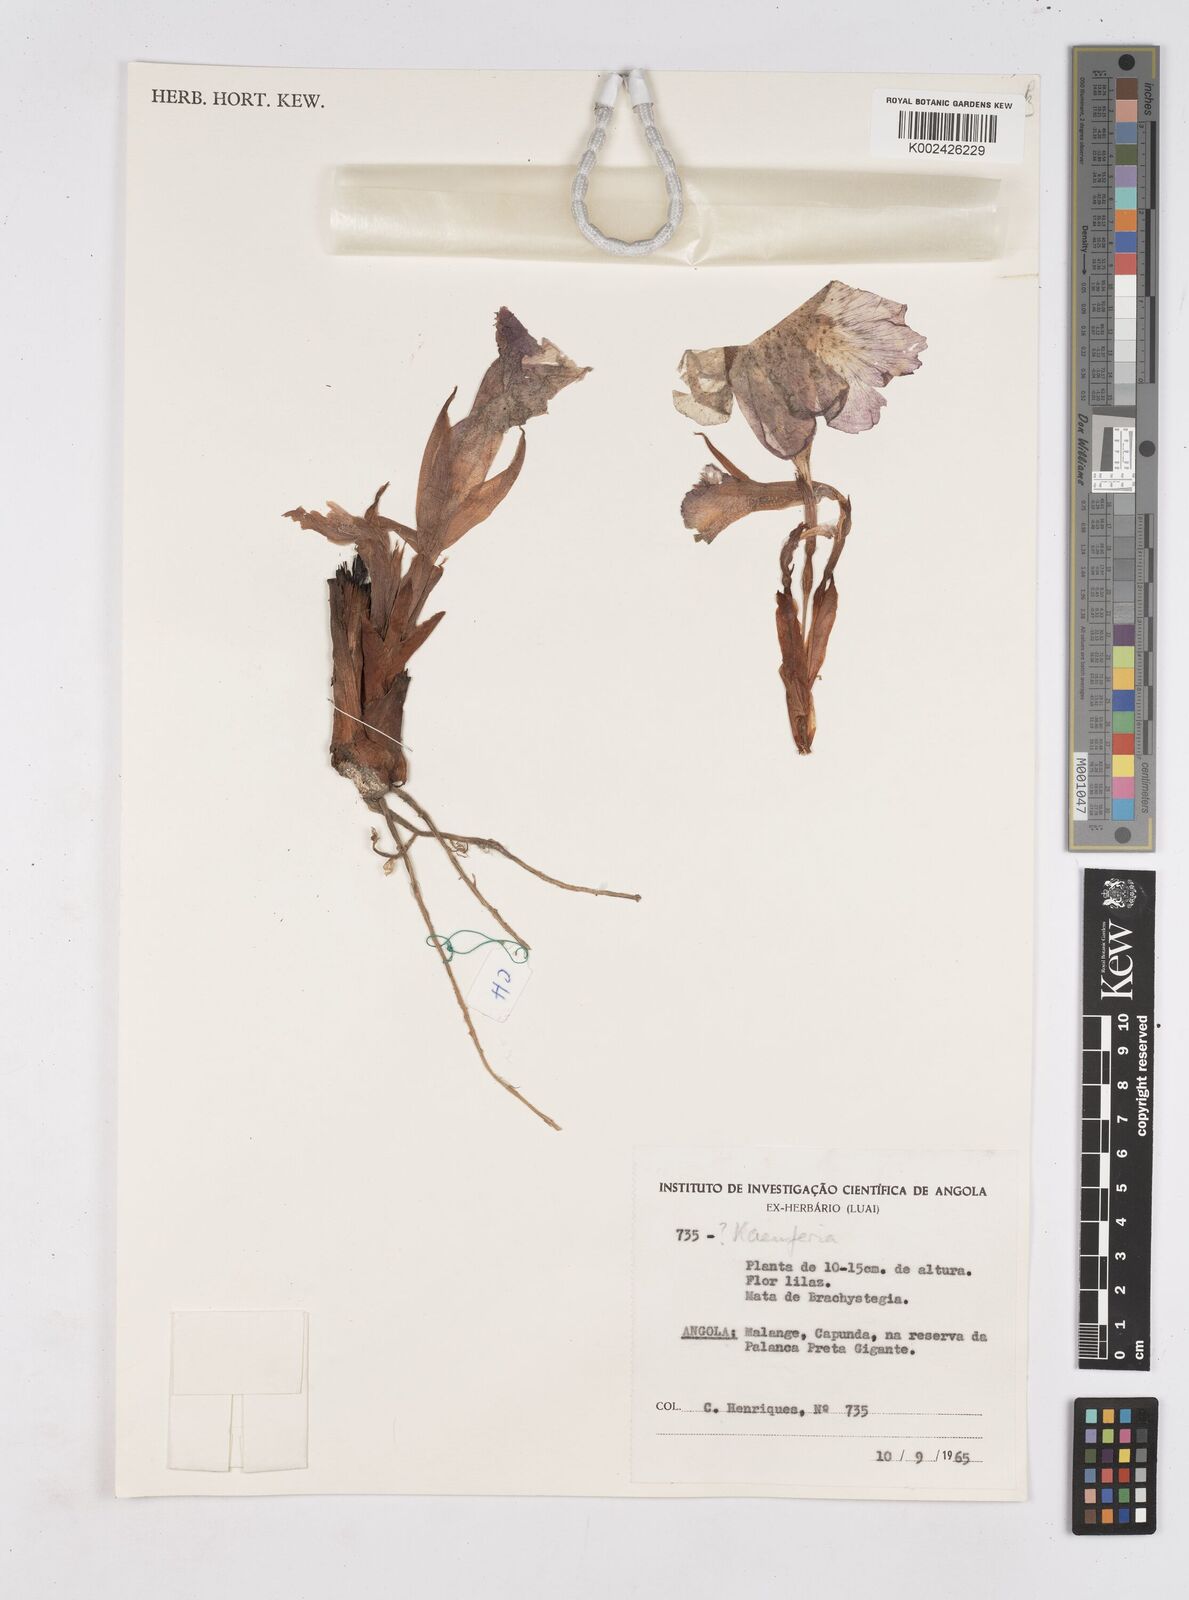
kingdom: Plantae
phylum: Tracheophyta
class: Liliopsida
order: Zingiberales
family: Zingiberaceae
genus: Siphonochilus
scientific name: Siphonochilus
